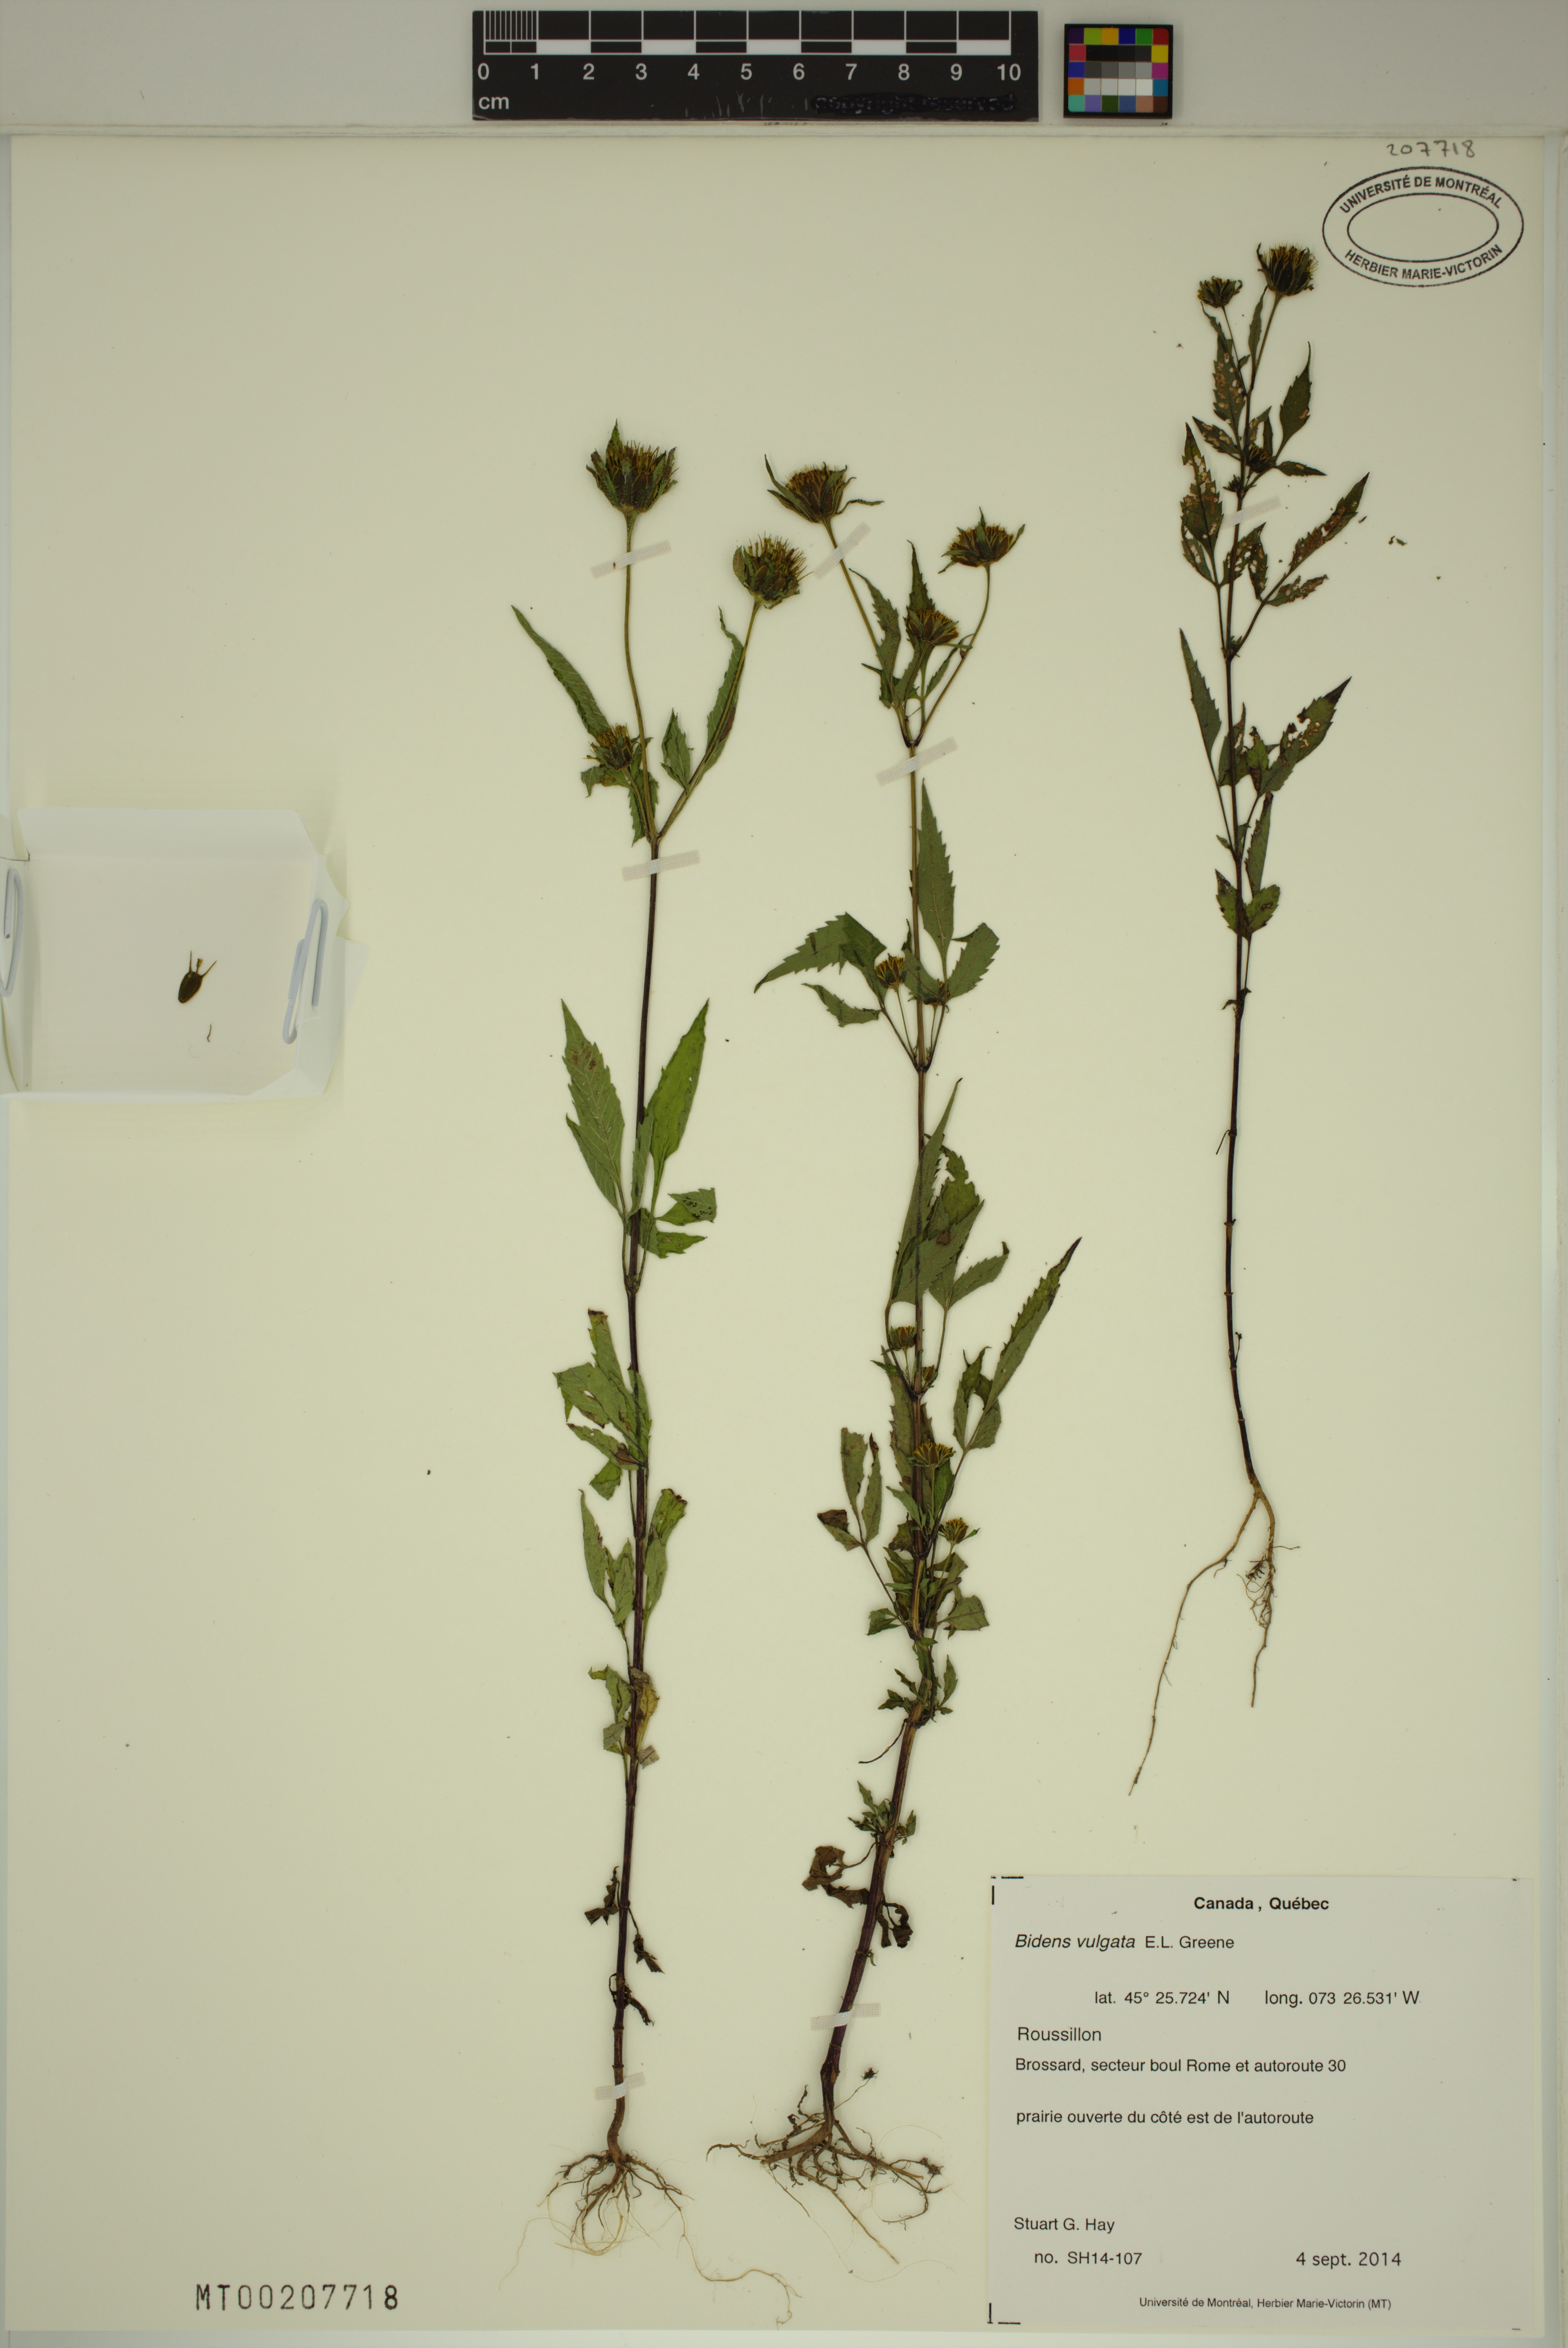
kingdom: Plantae
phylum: Tracheophyta
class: Magnoliopsida
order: Asterales
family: Asteraceae
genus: Bidens
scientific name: Bidens vulgata
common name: Tall beggarticks
